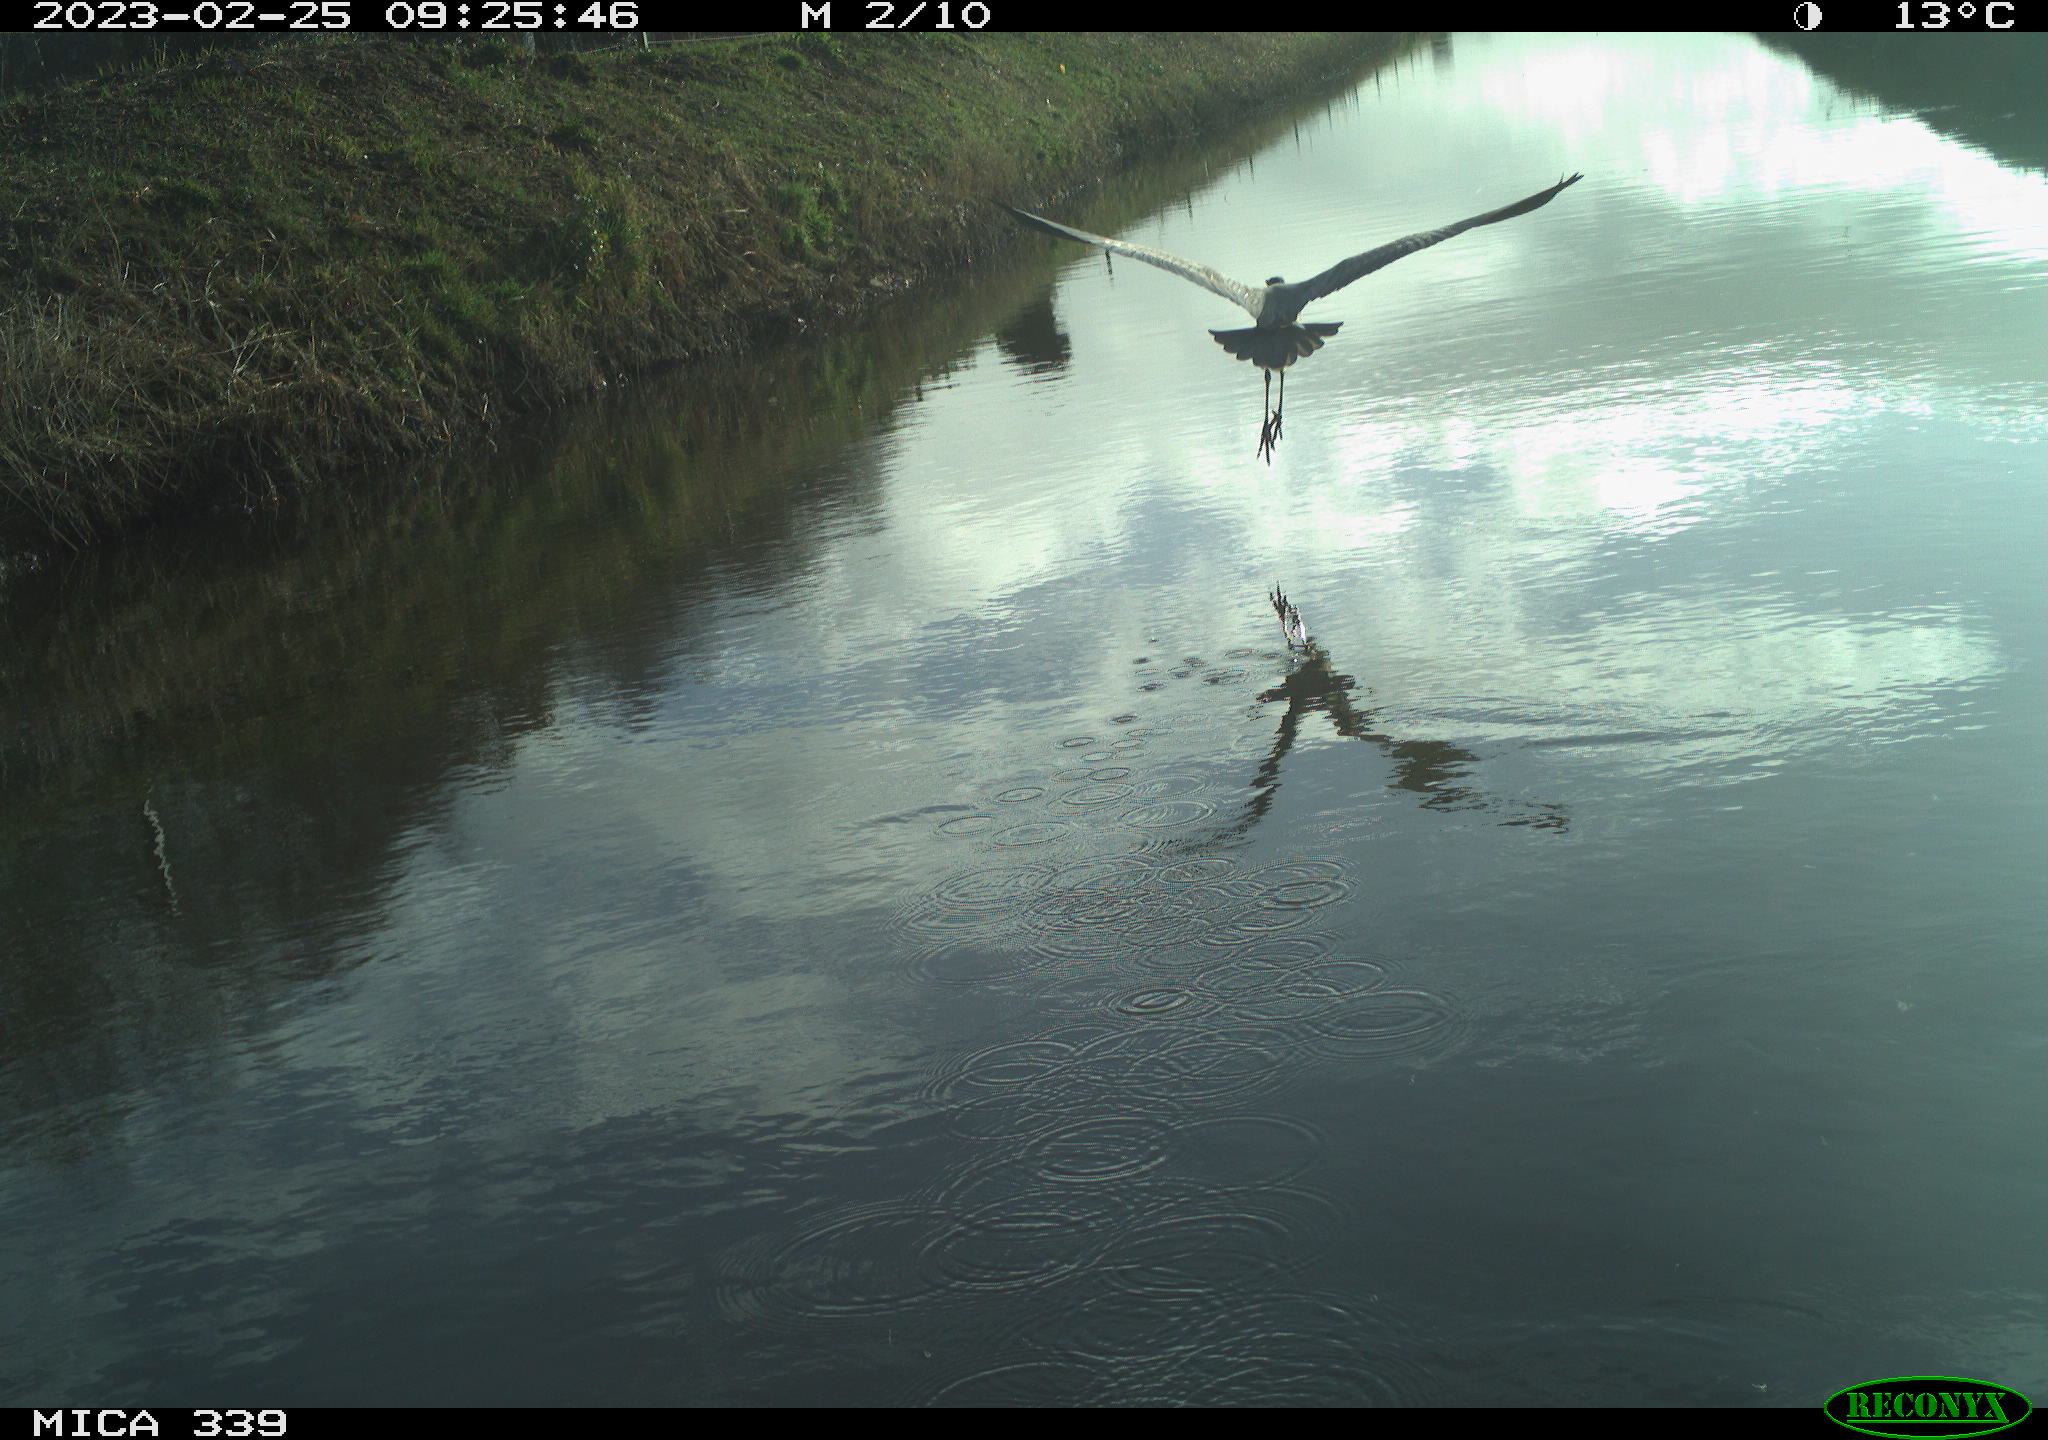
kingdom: Animalia
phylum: Chordata
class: Aves
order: Pelecaniformes
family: Ardeidae
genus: Ardea
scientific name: Ardea cinerea
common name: Grey heron
